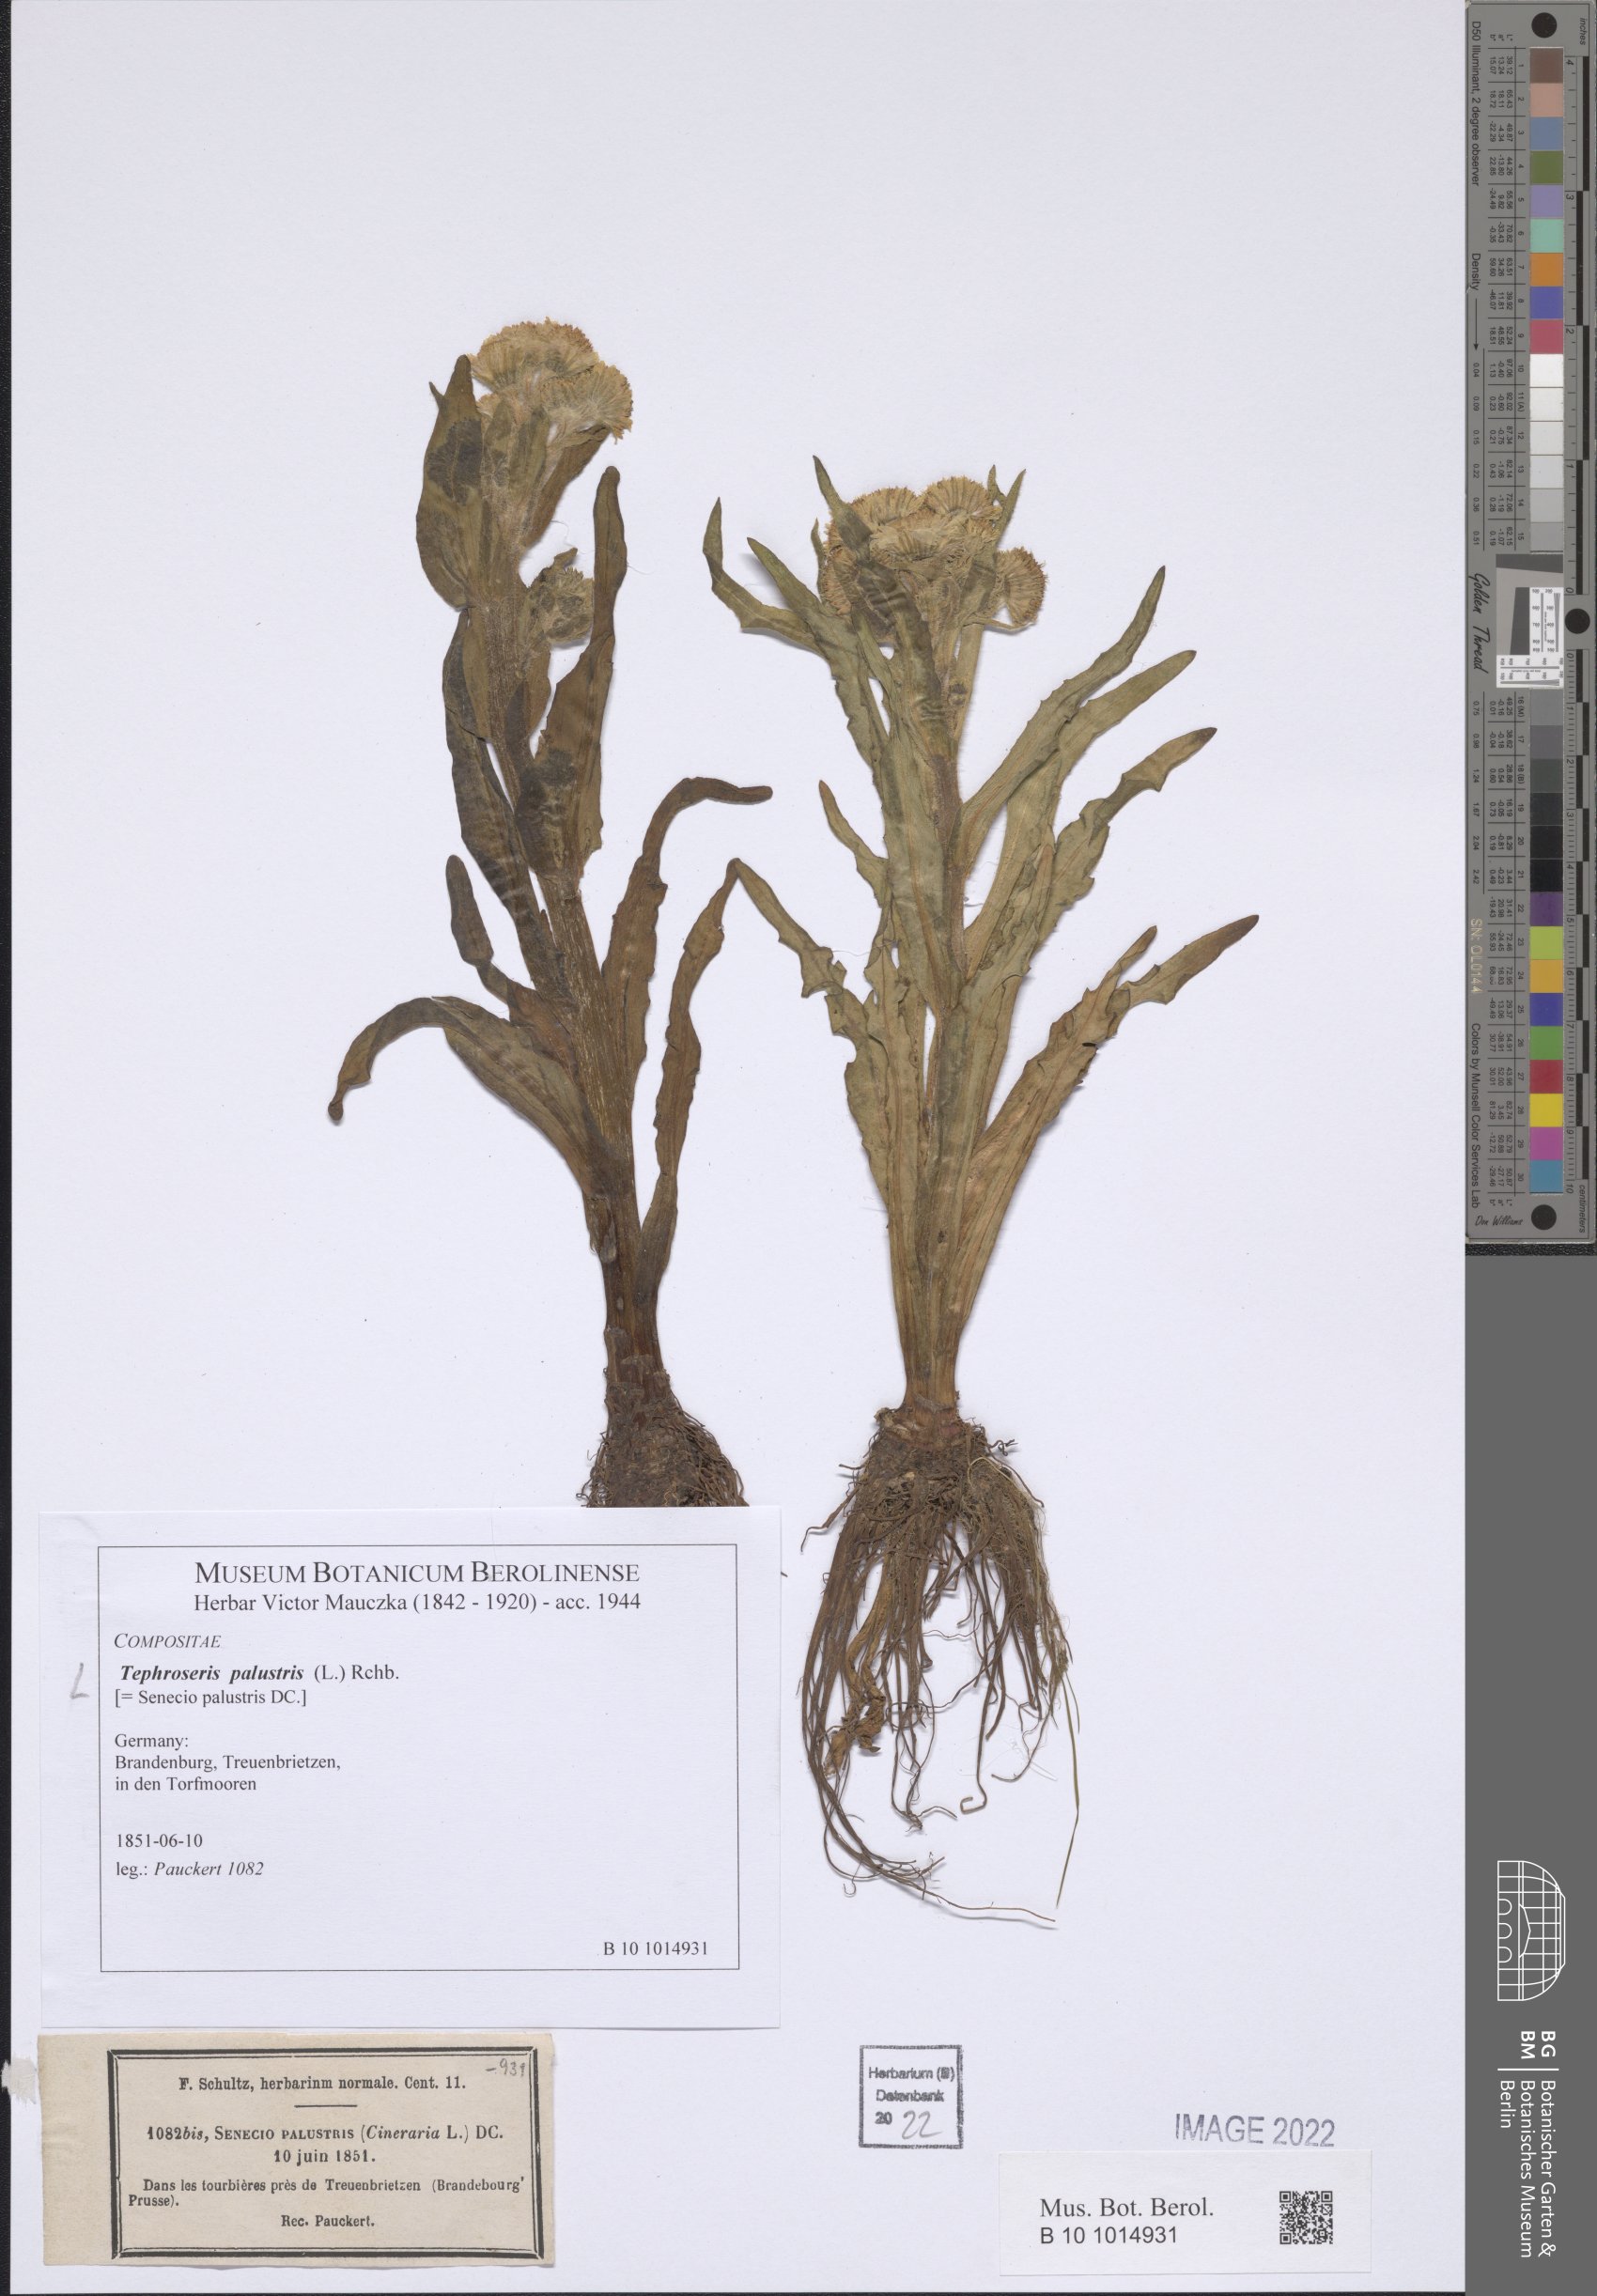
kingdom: Plantae
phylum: Tracheophyta
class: Magnoliopsida
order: Asterales
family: Asteraceae
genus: Tephroseris
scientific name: Tephroseris palustris
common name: Marsh fleawort
